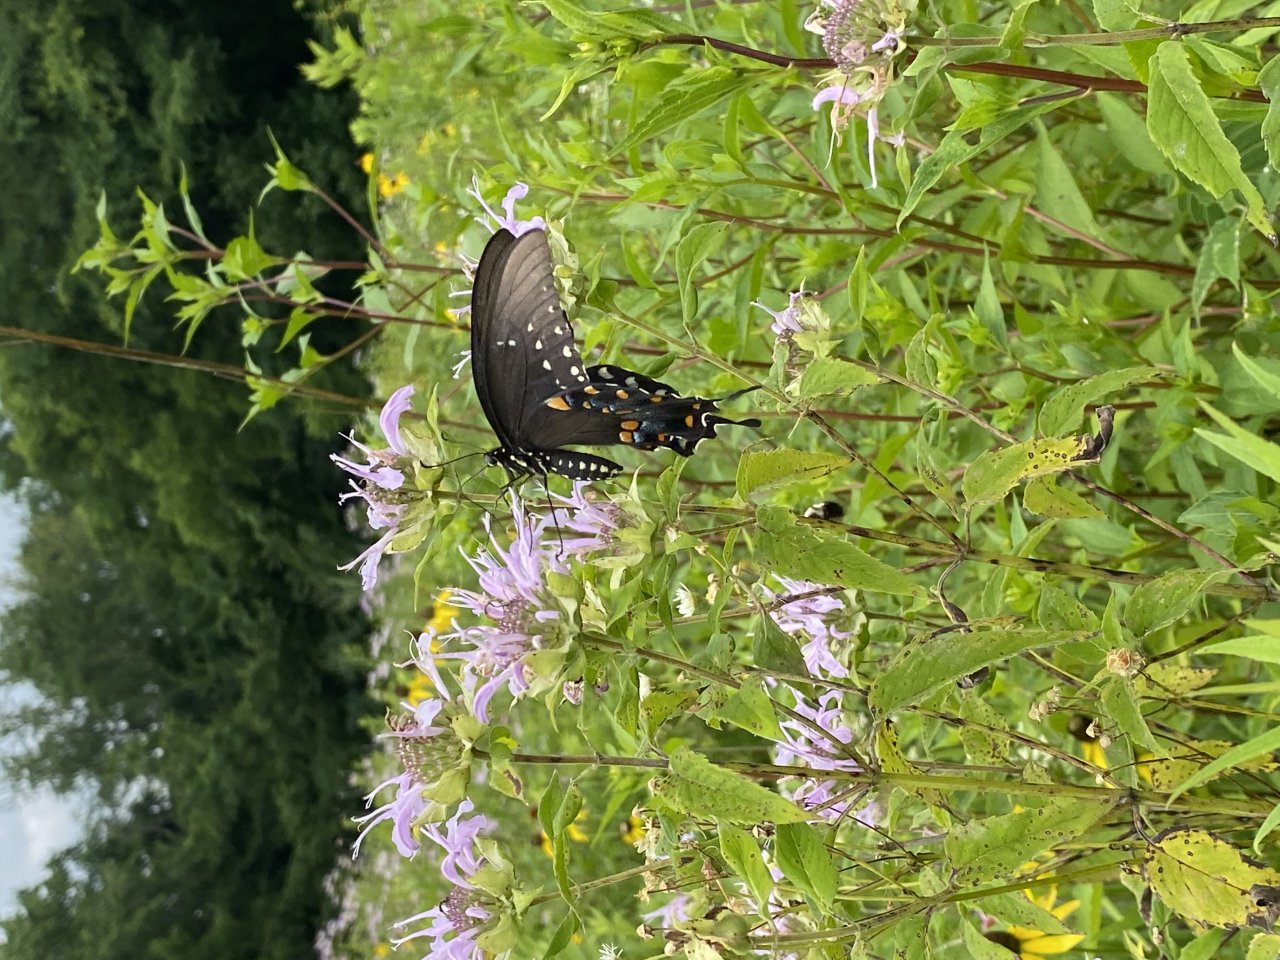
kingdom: Animalia
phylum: Arthropoda
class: Insecta
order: Lepidoptera
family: Papilionidae
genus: Pterourus
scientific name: Pterourus troilus
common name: Spicebush Swallowtail
